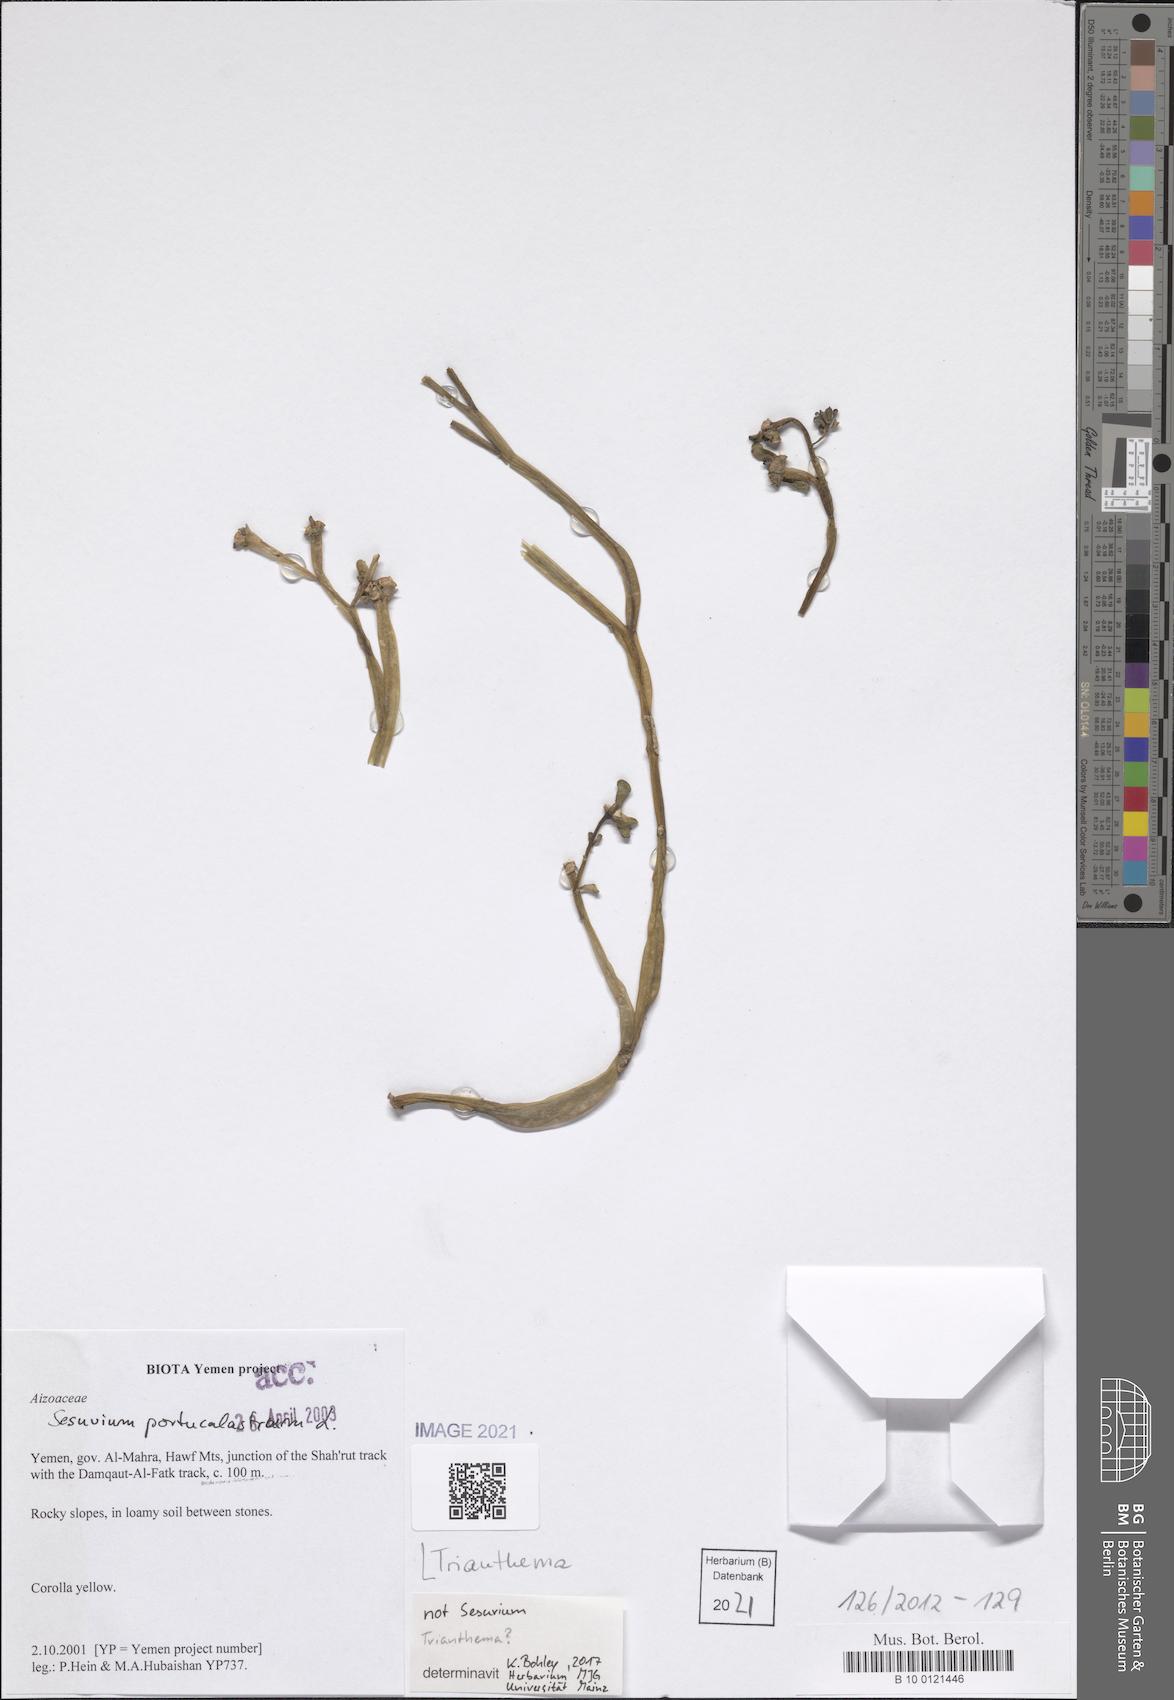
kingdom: Plantae
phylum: Tracheophyta
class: Magnoliopsida
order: Caryophyllales
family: Aizoaceae
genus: Trianthema
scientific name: Trianthema
